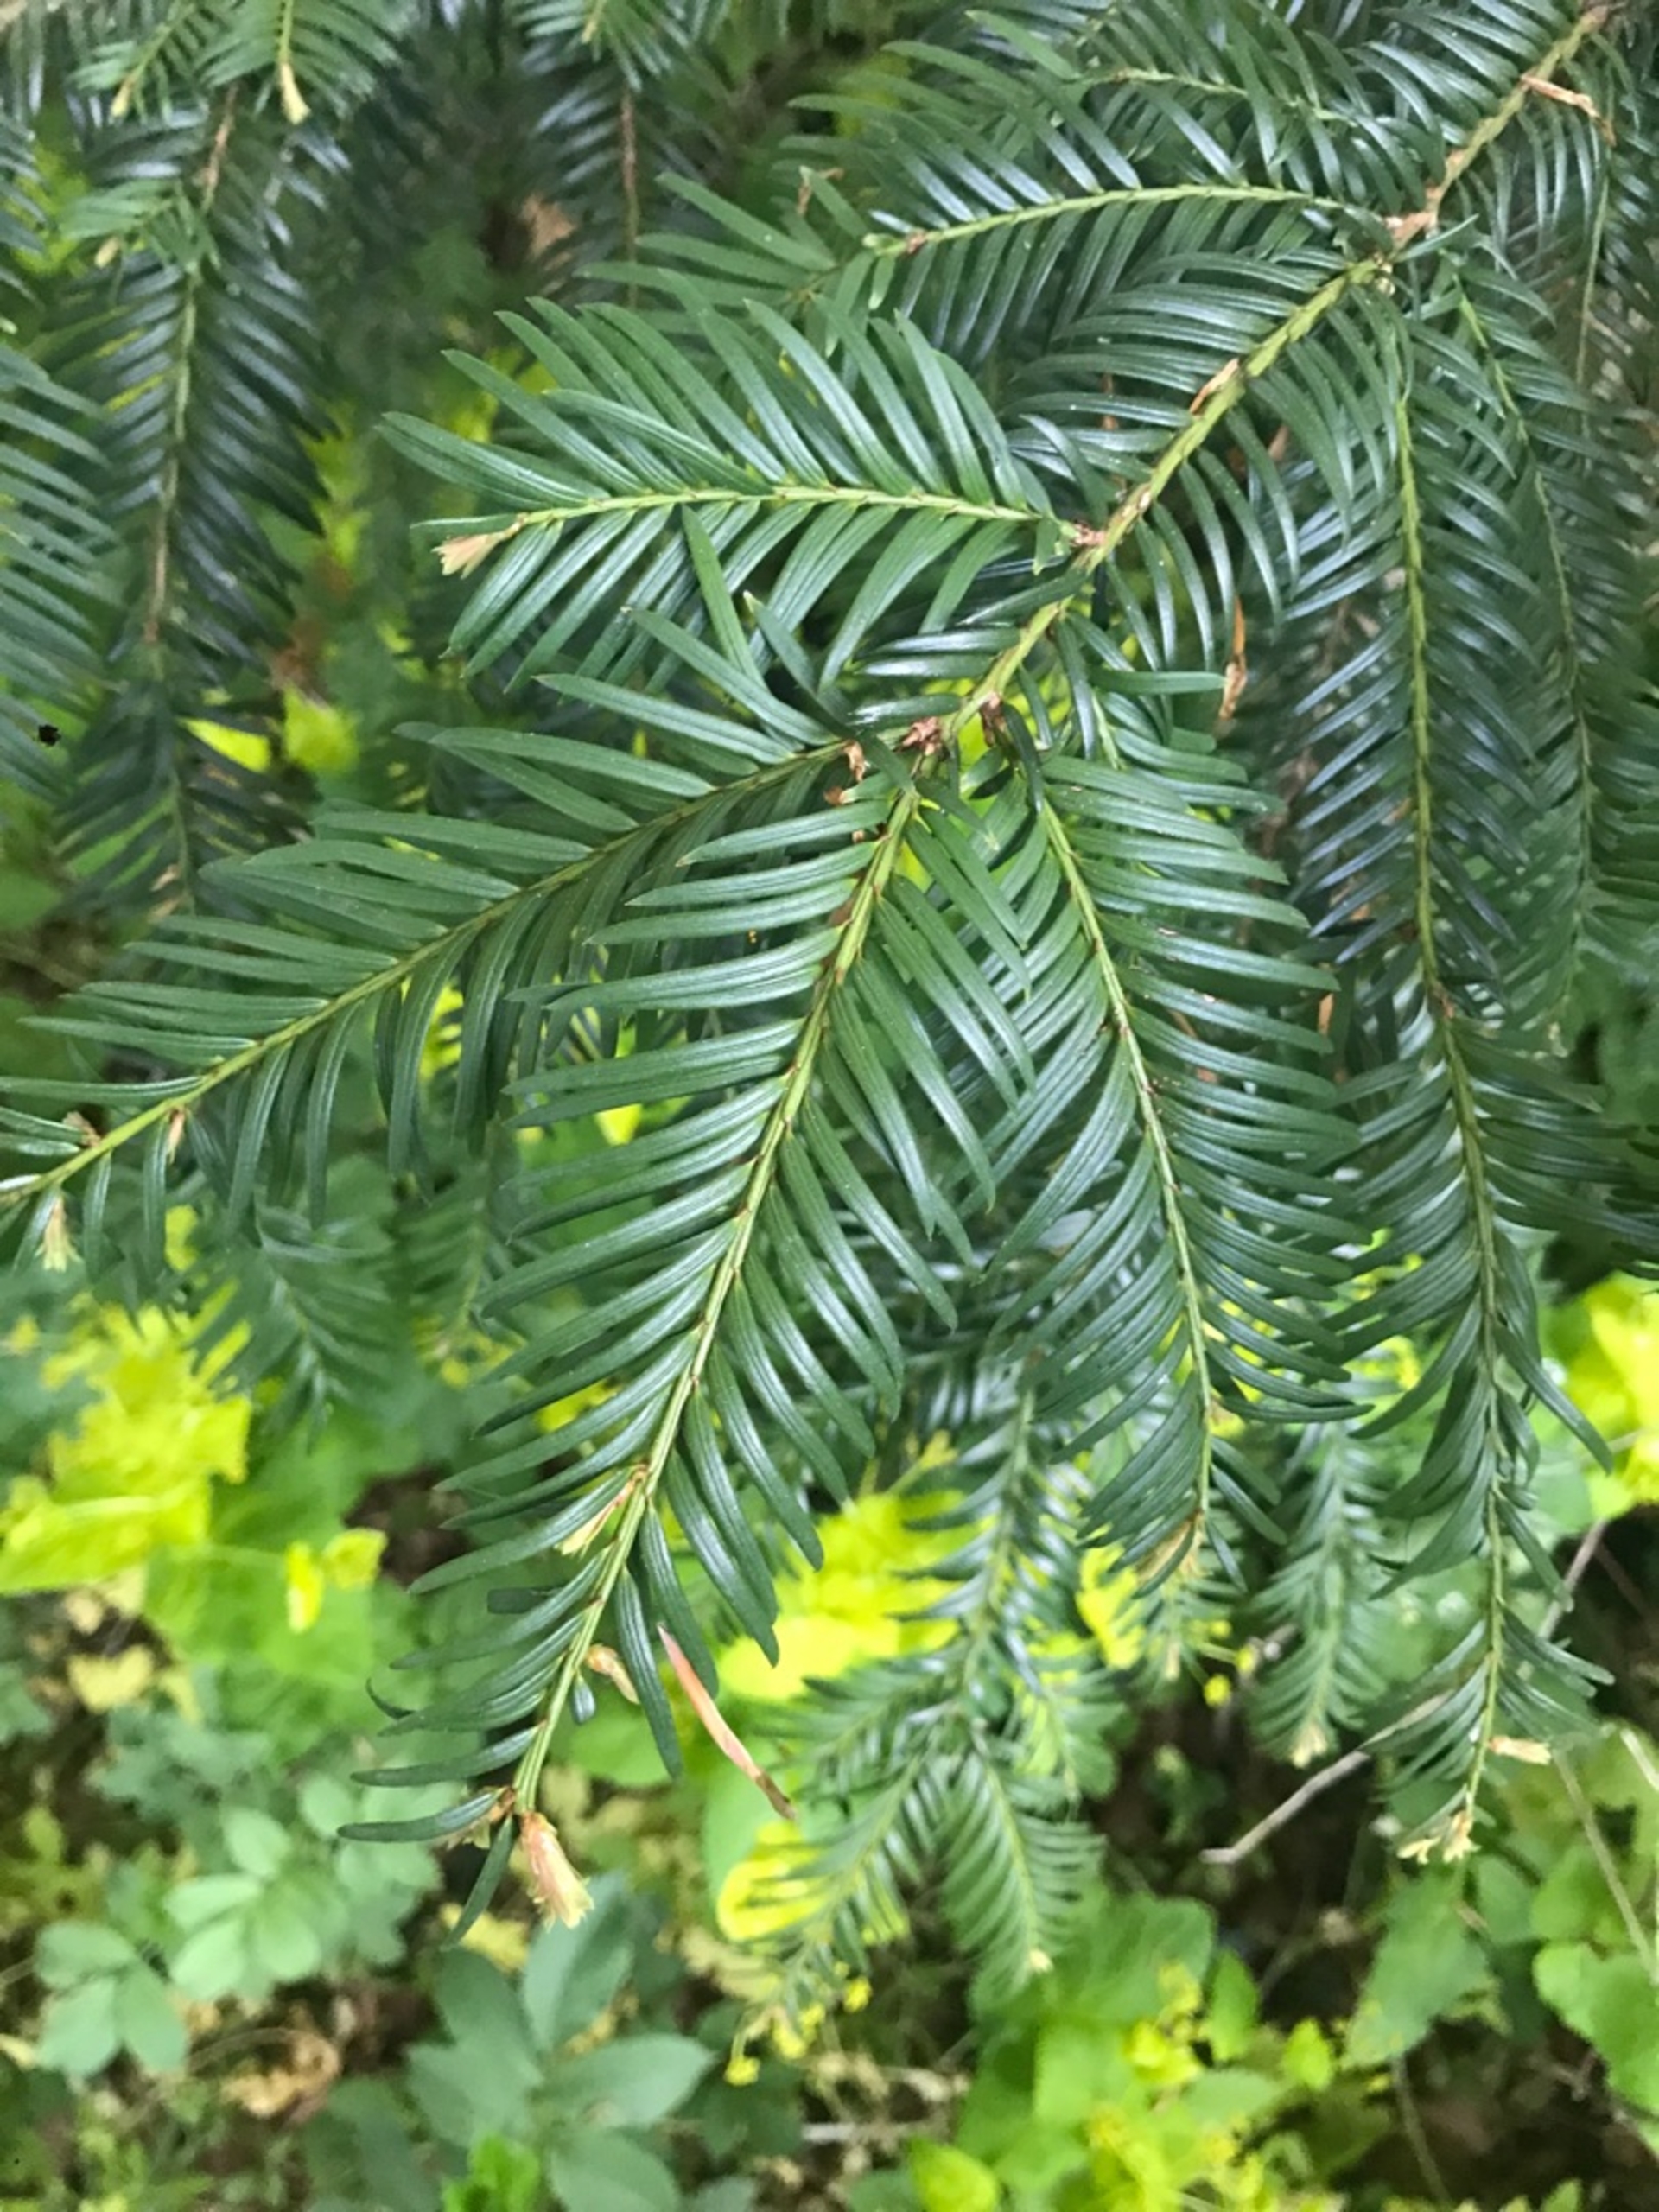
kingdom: Plantae
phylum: Tracheophyta
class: Pinopsida
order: Pinales
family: Taxaceae
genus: Taxus
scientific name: Taxus baccata
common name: Almindelig taks
